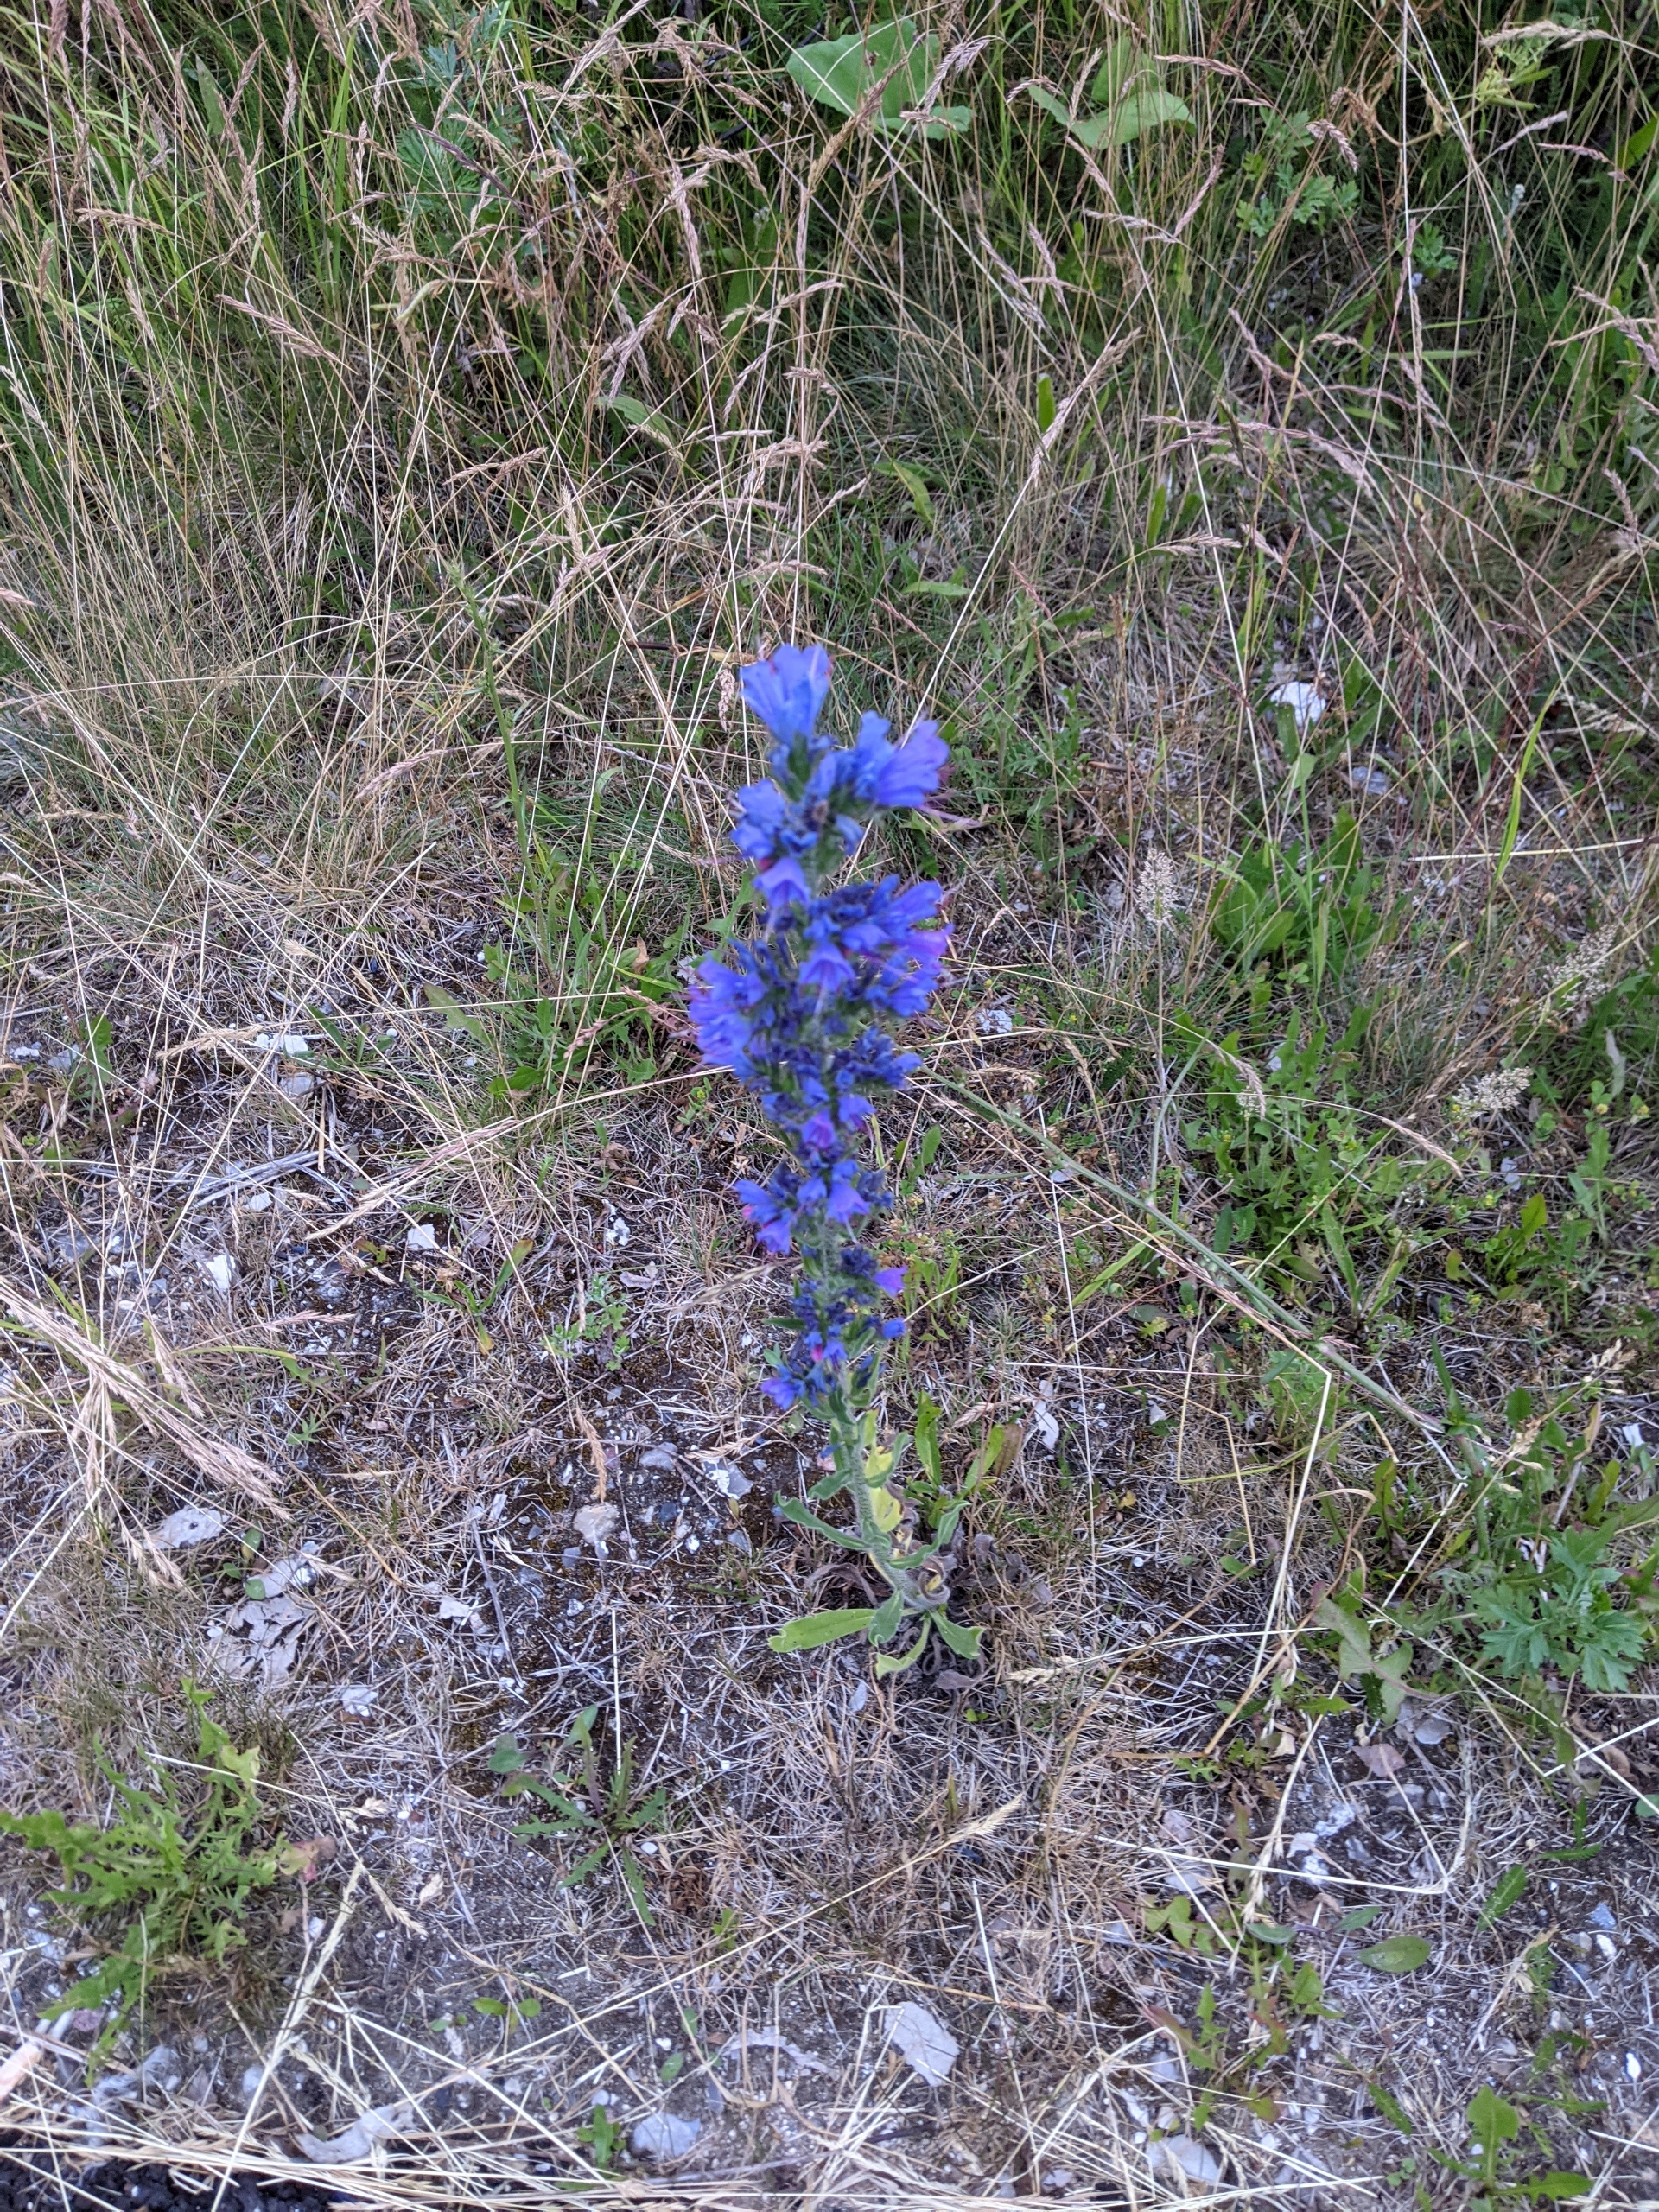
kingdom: Plantae
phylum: Tracheophyta
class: Magnoliopsida
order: Boraginales
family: Boraginaceae
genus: Echium
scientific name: Echium vulgare
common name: Slangehoved
